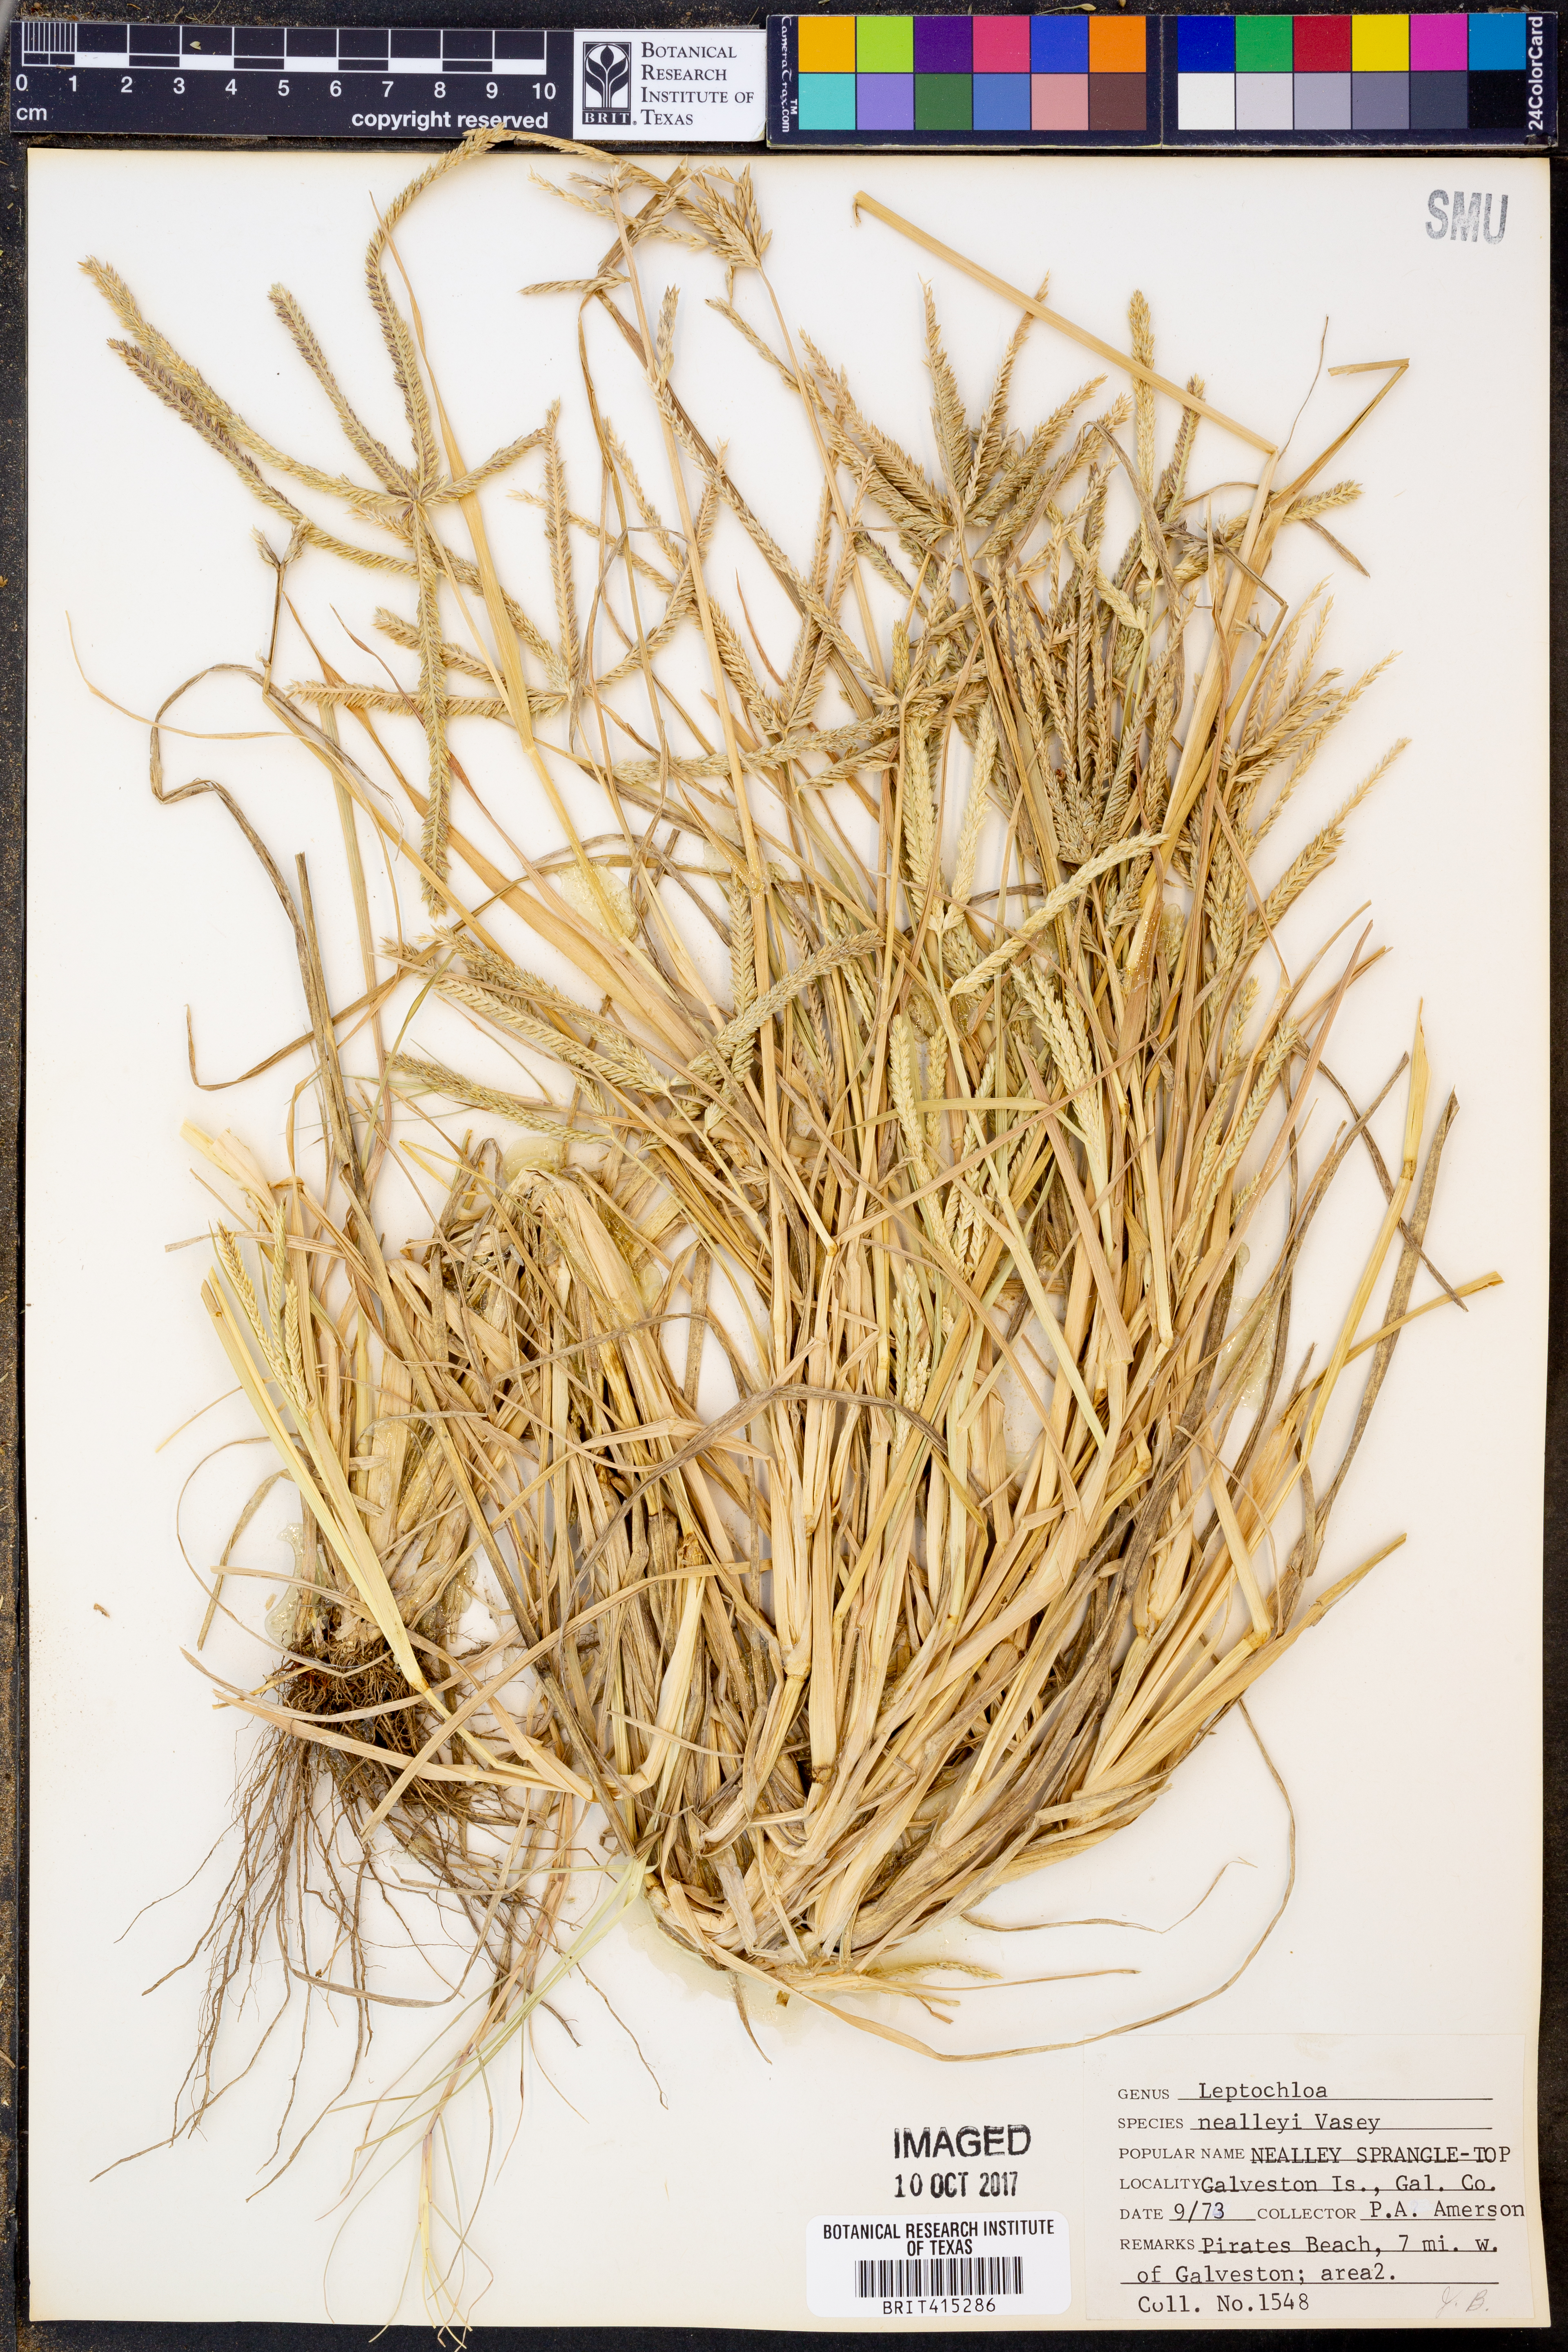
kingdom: Plantae
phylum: Tracheophyta
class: Liliopsida
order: Poales
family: Poaceae
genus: Leptochloa
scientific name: Leptochloa nealleyi
